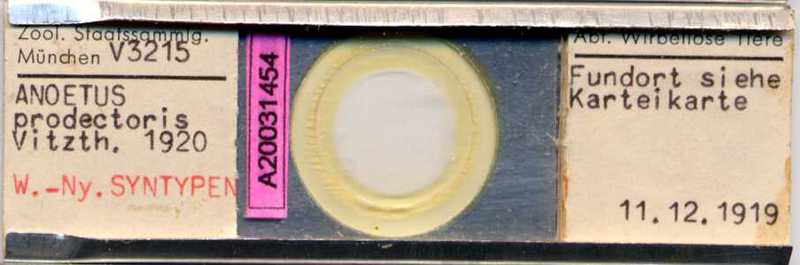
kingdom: Animalia
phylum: Arthropoda
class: Arachnida
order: Sarcoptiformes
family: Histiostomatidae
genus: Histiostoma
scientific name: Histiostoma prodectoris
